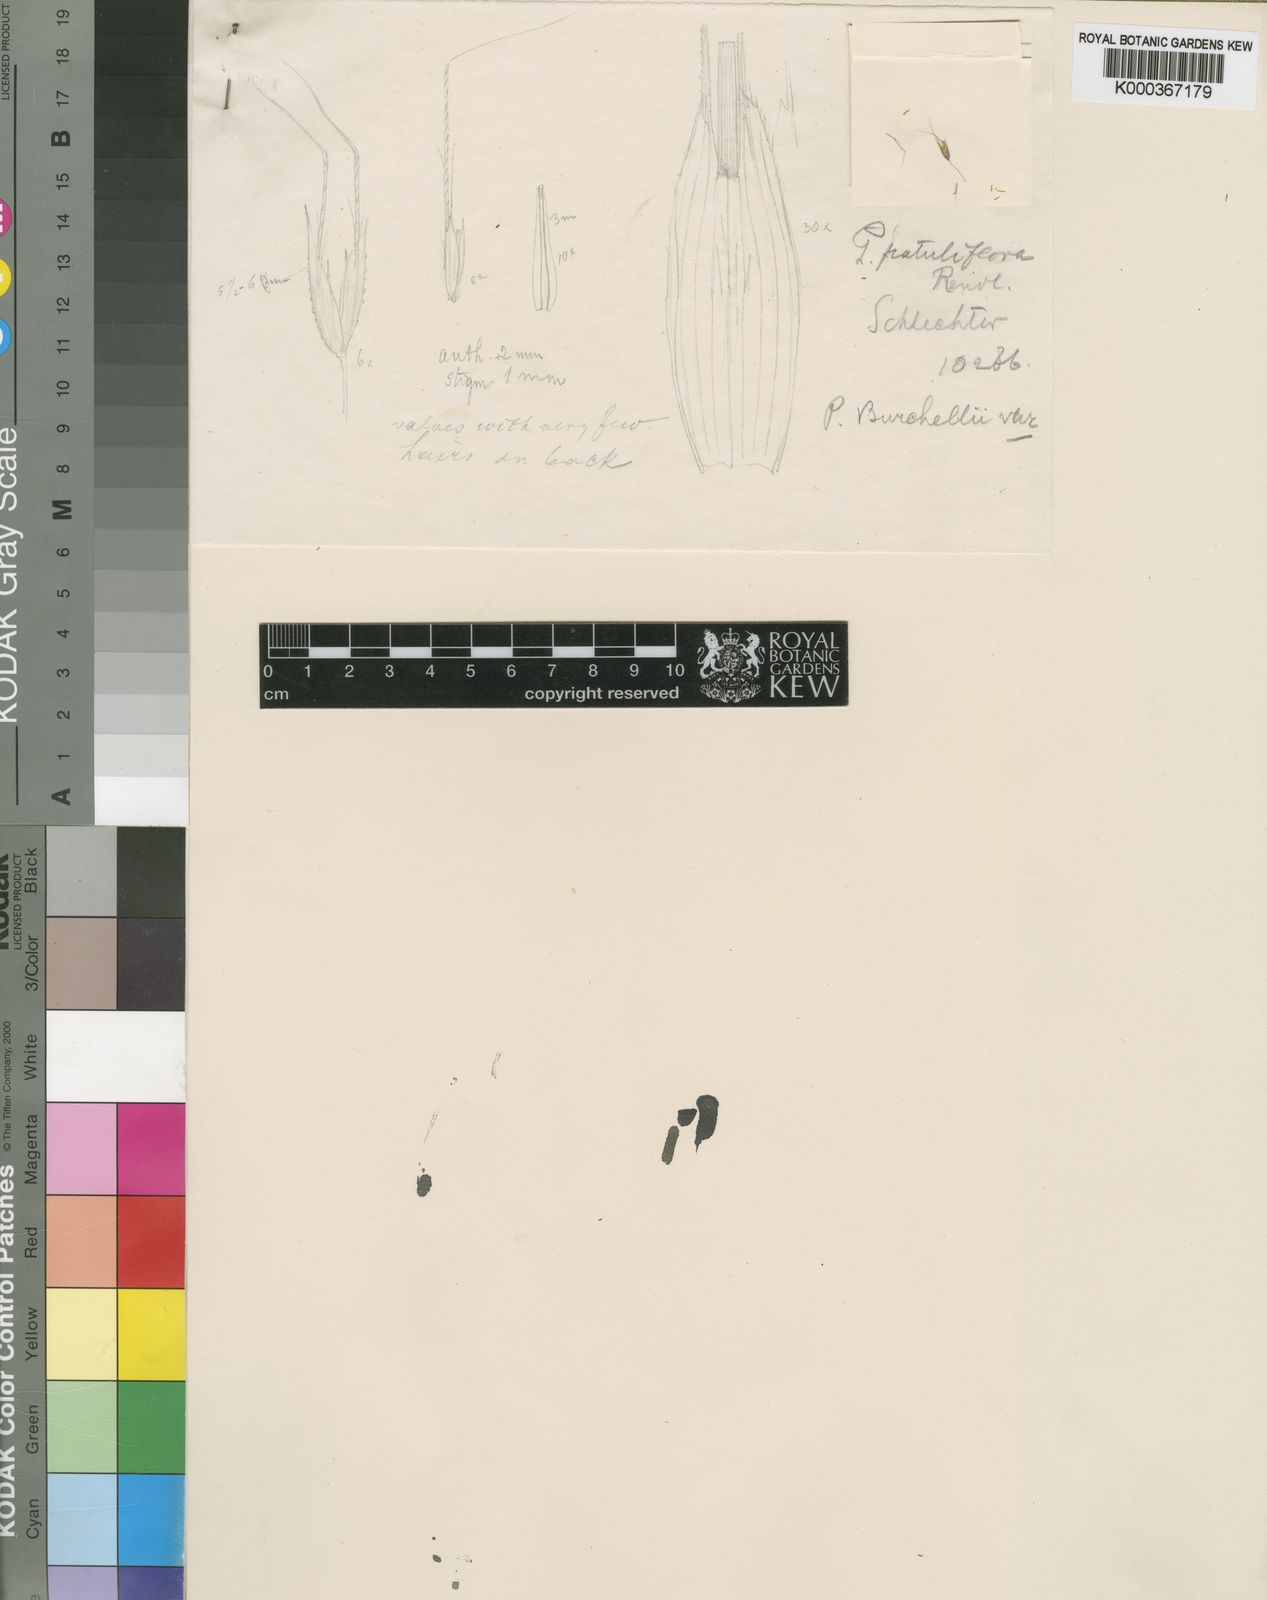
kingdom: Plantae
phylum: Tracheophyta
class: Liliopsida
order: Poales
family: Poaceae
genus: Pentameris
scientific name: Pentameris cirrhulosa
